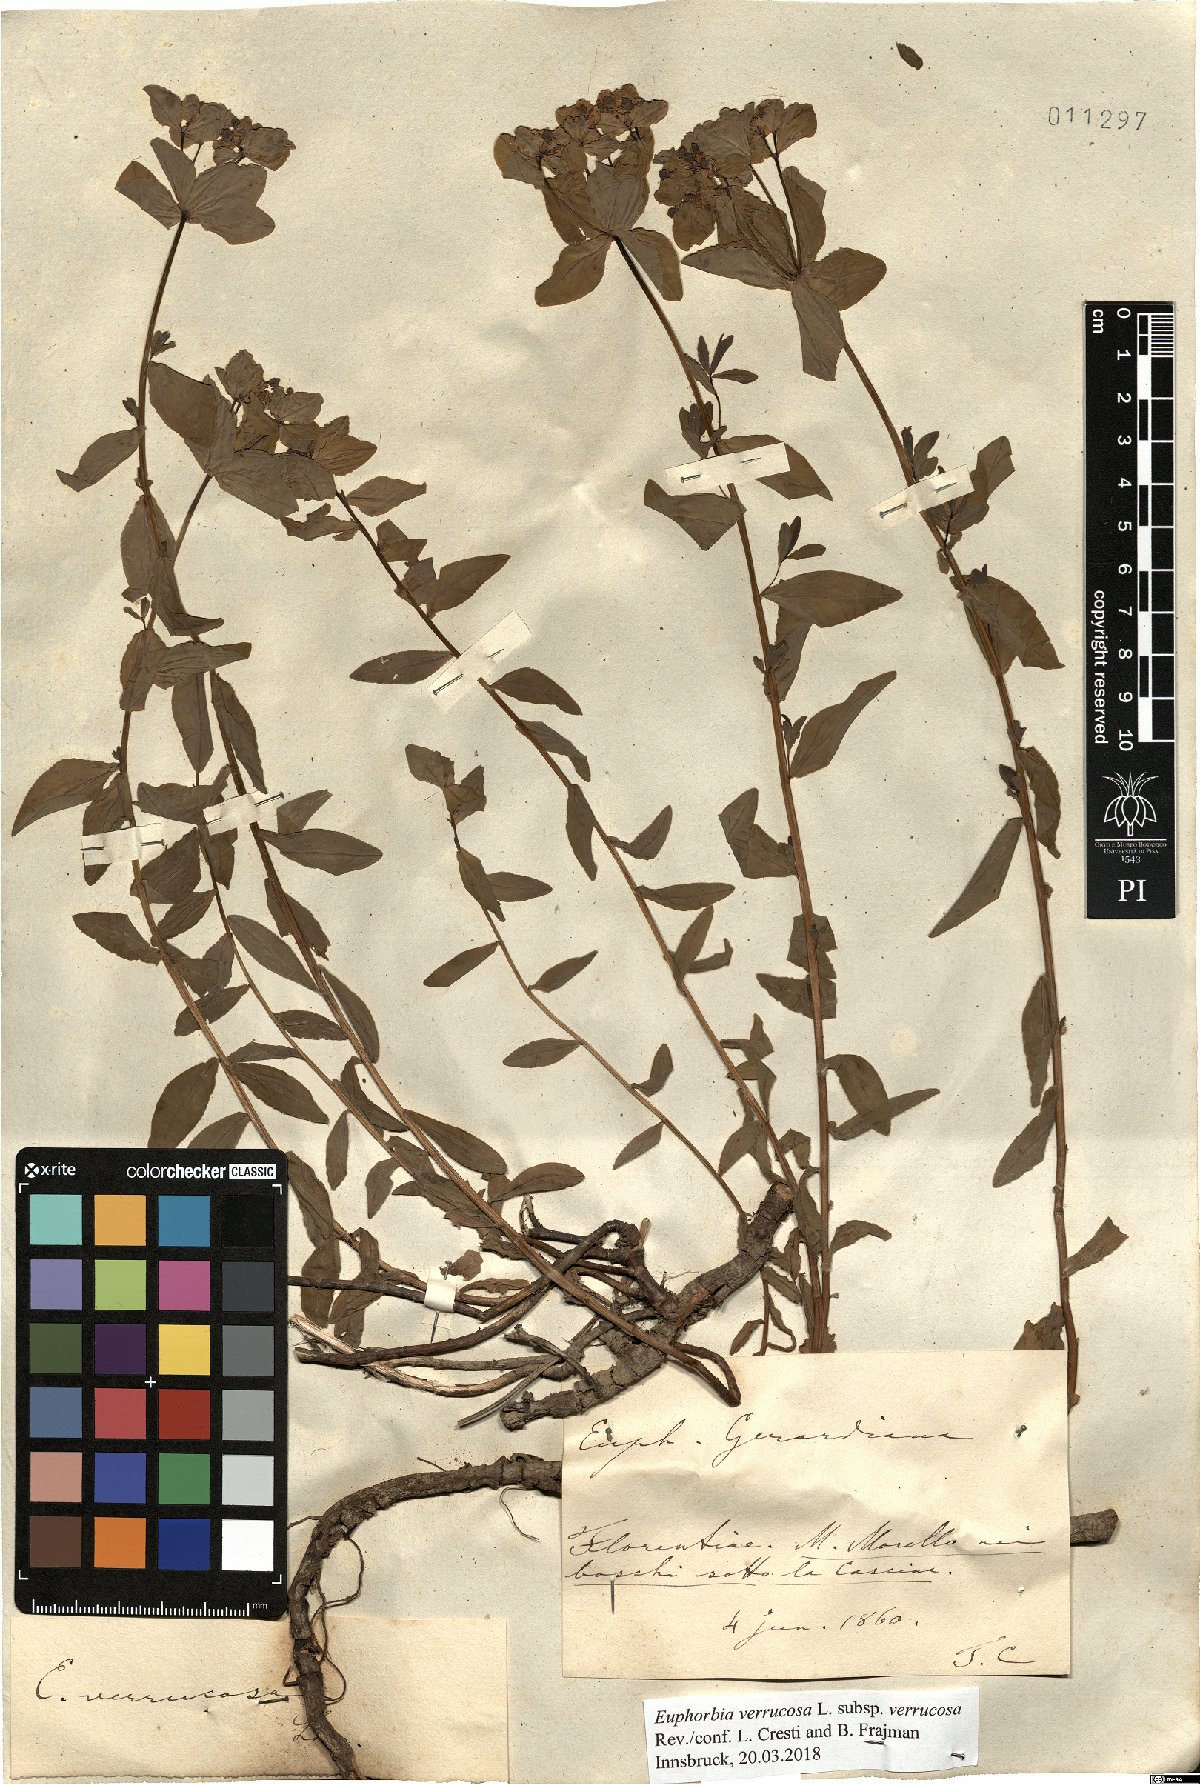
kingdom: Plantae
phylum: Tracheophyta
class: Magnoliopsida
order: Malpighiales
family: Euphorbiaceae
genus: Euphorbia
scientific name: Euphorbia verrucosa
